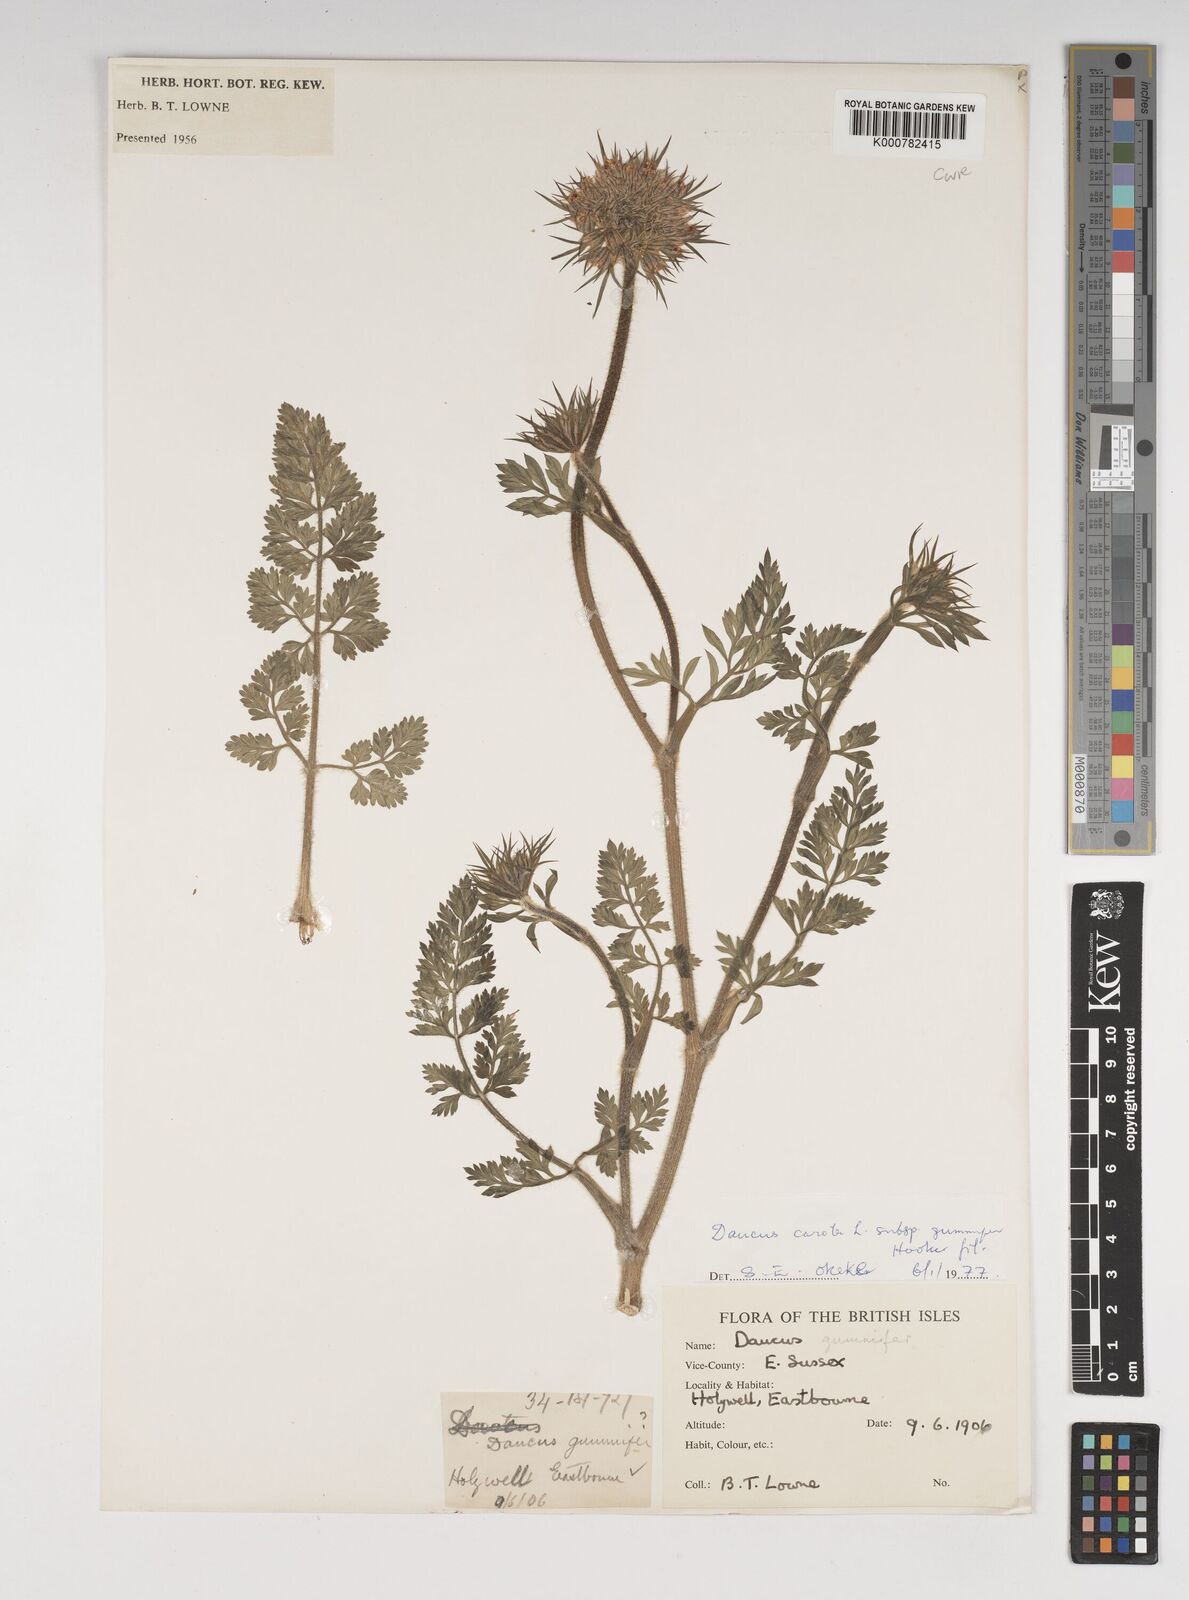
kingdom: Plantae
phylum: Tracheophyta
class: Magnoliopsida
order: Apiales
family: Apiaceae
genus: Daucus
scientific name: Daucus carota
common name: Wild carrot
